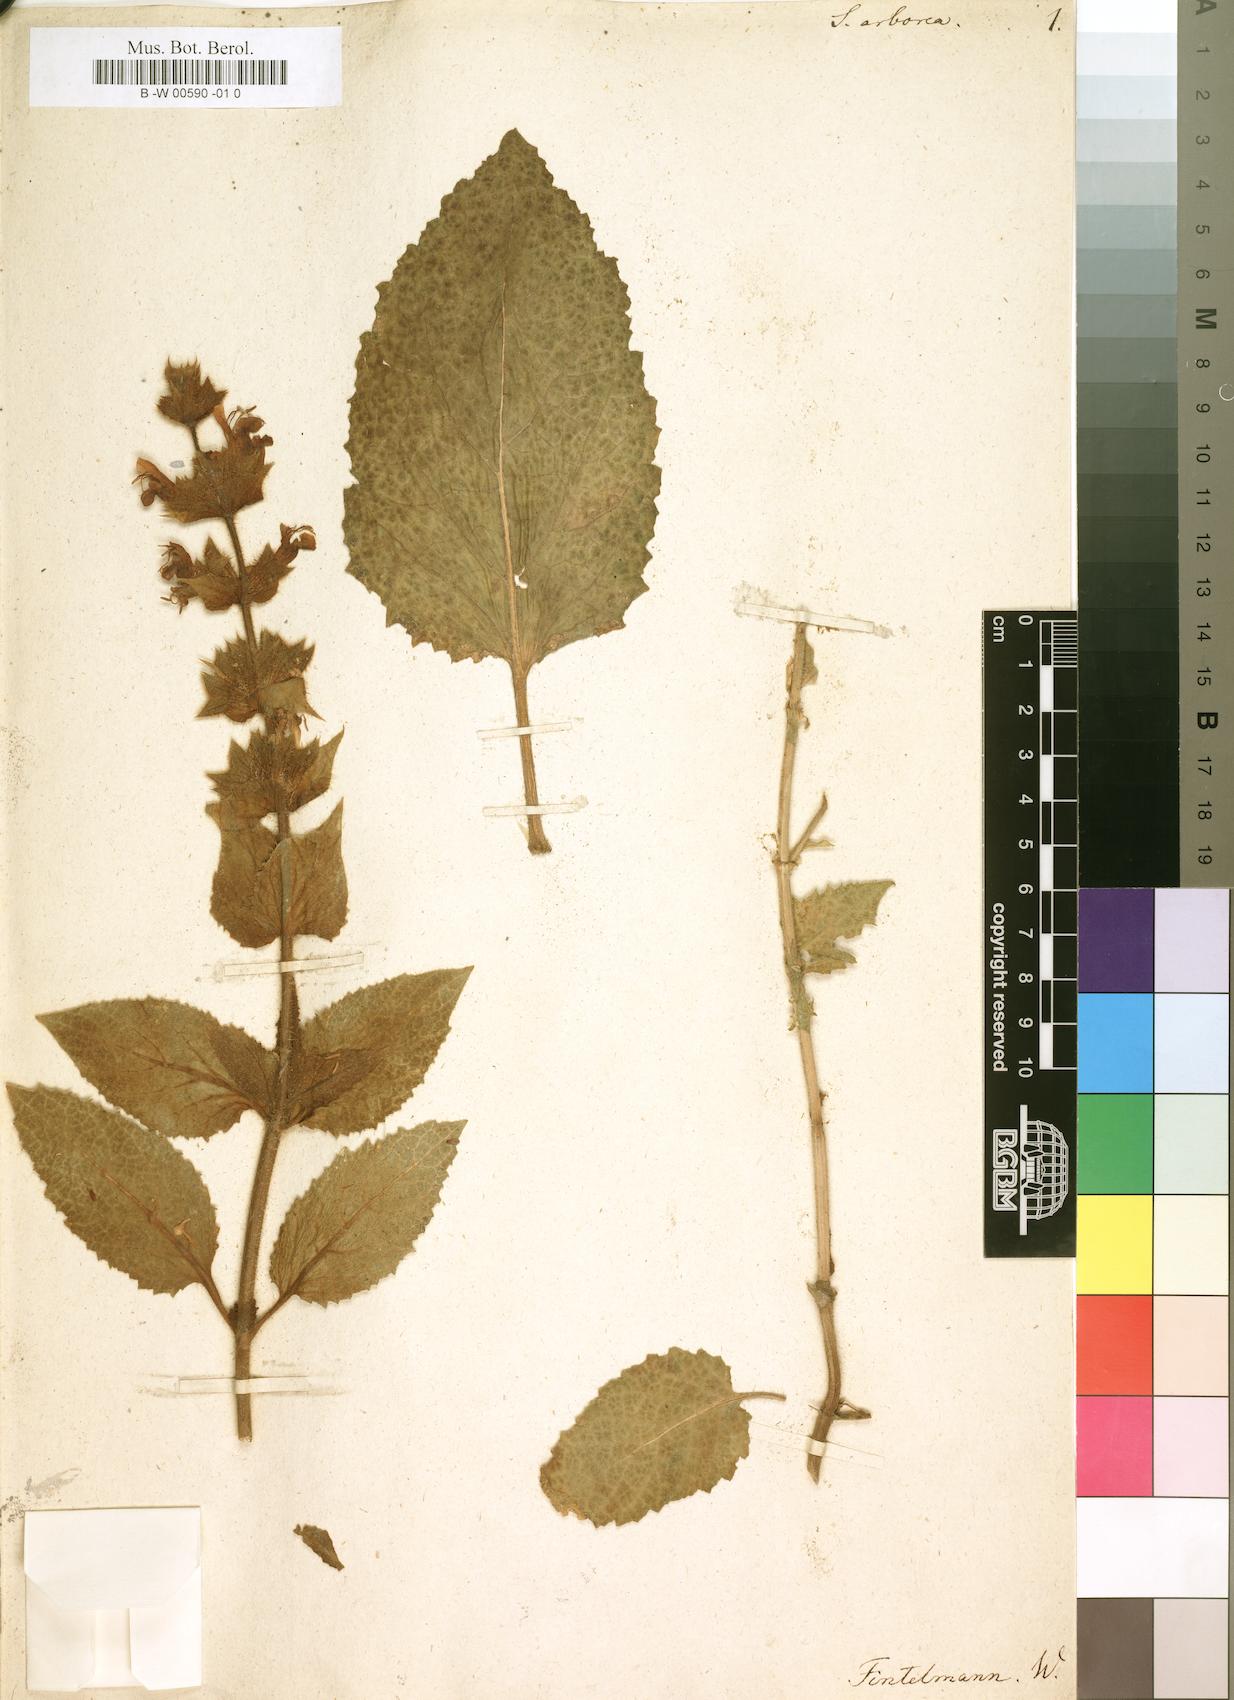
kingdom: Plantae
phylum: Tracheophyta
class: Magnoliopsida
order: Lamiales
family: Lamiaceae
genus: Salvia
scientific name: Salvia
